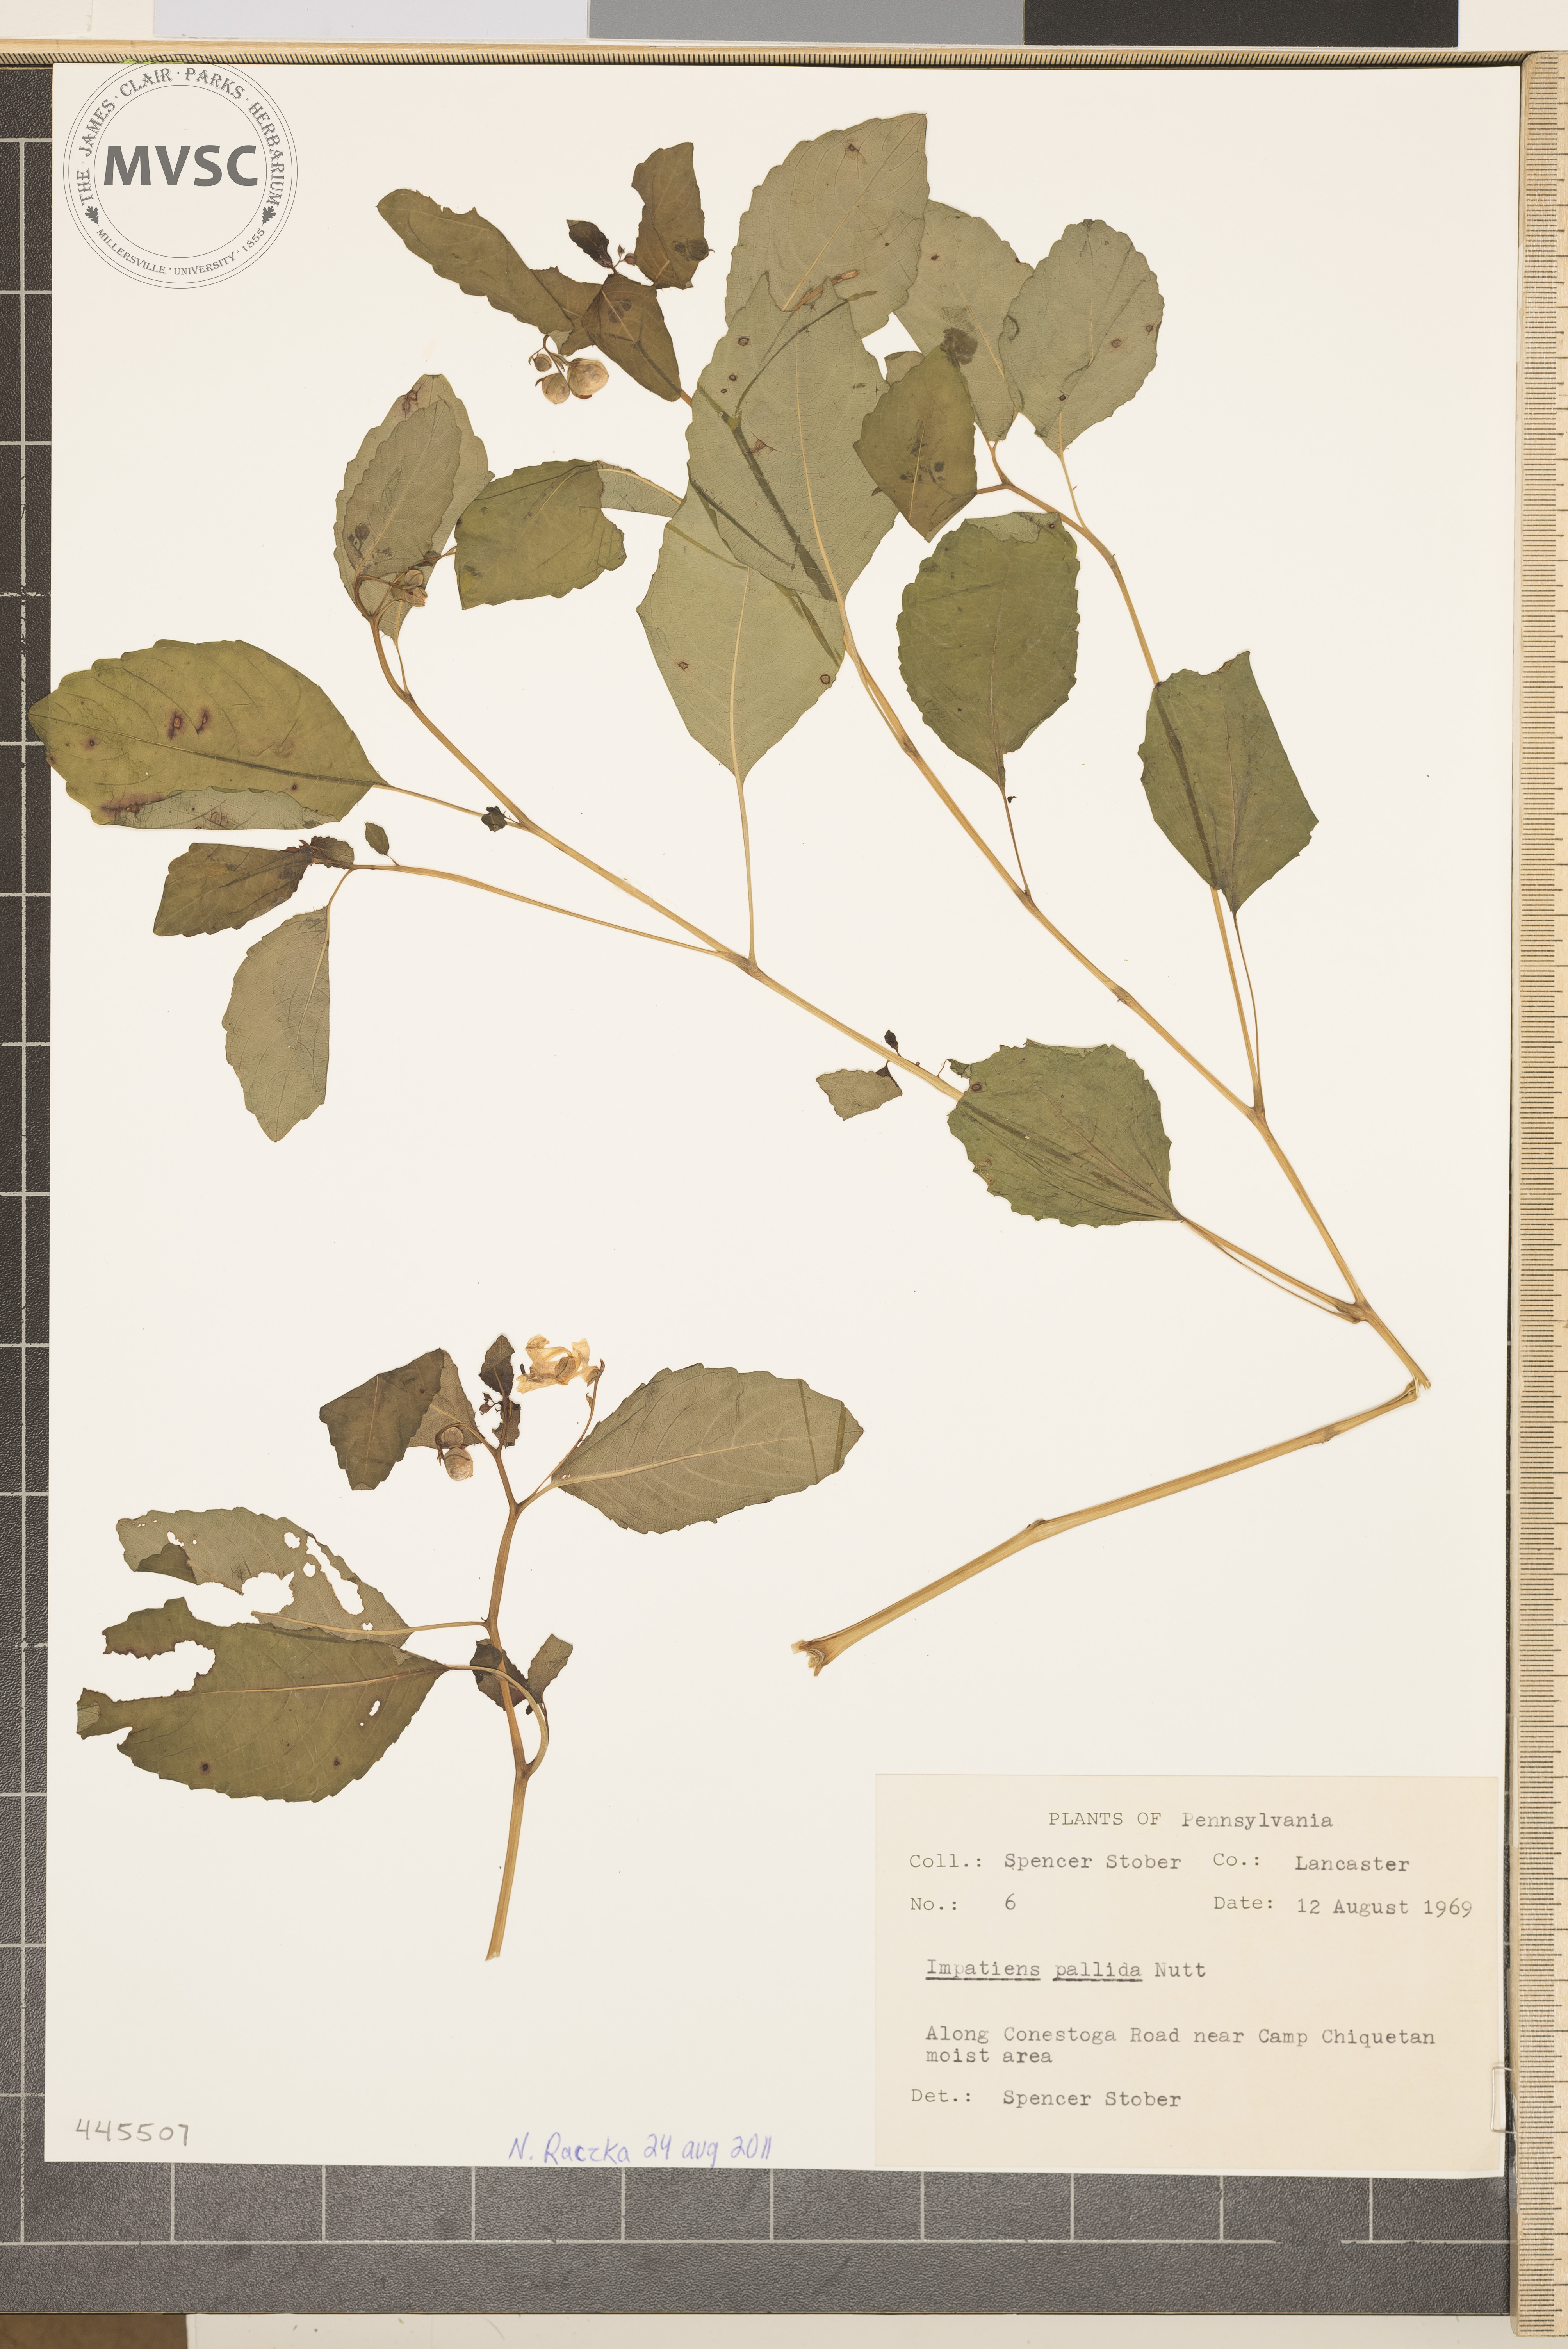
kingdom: Plantae
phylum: Tracheophyta
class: Magnoliopsida
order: Ericales
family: Balsaminaceae
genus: Impatiens
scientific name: Impatiens pallida
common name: Pale snapweed
